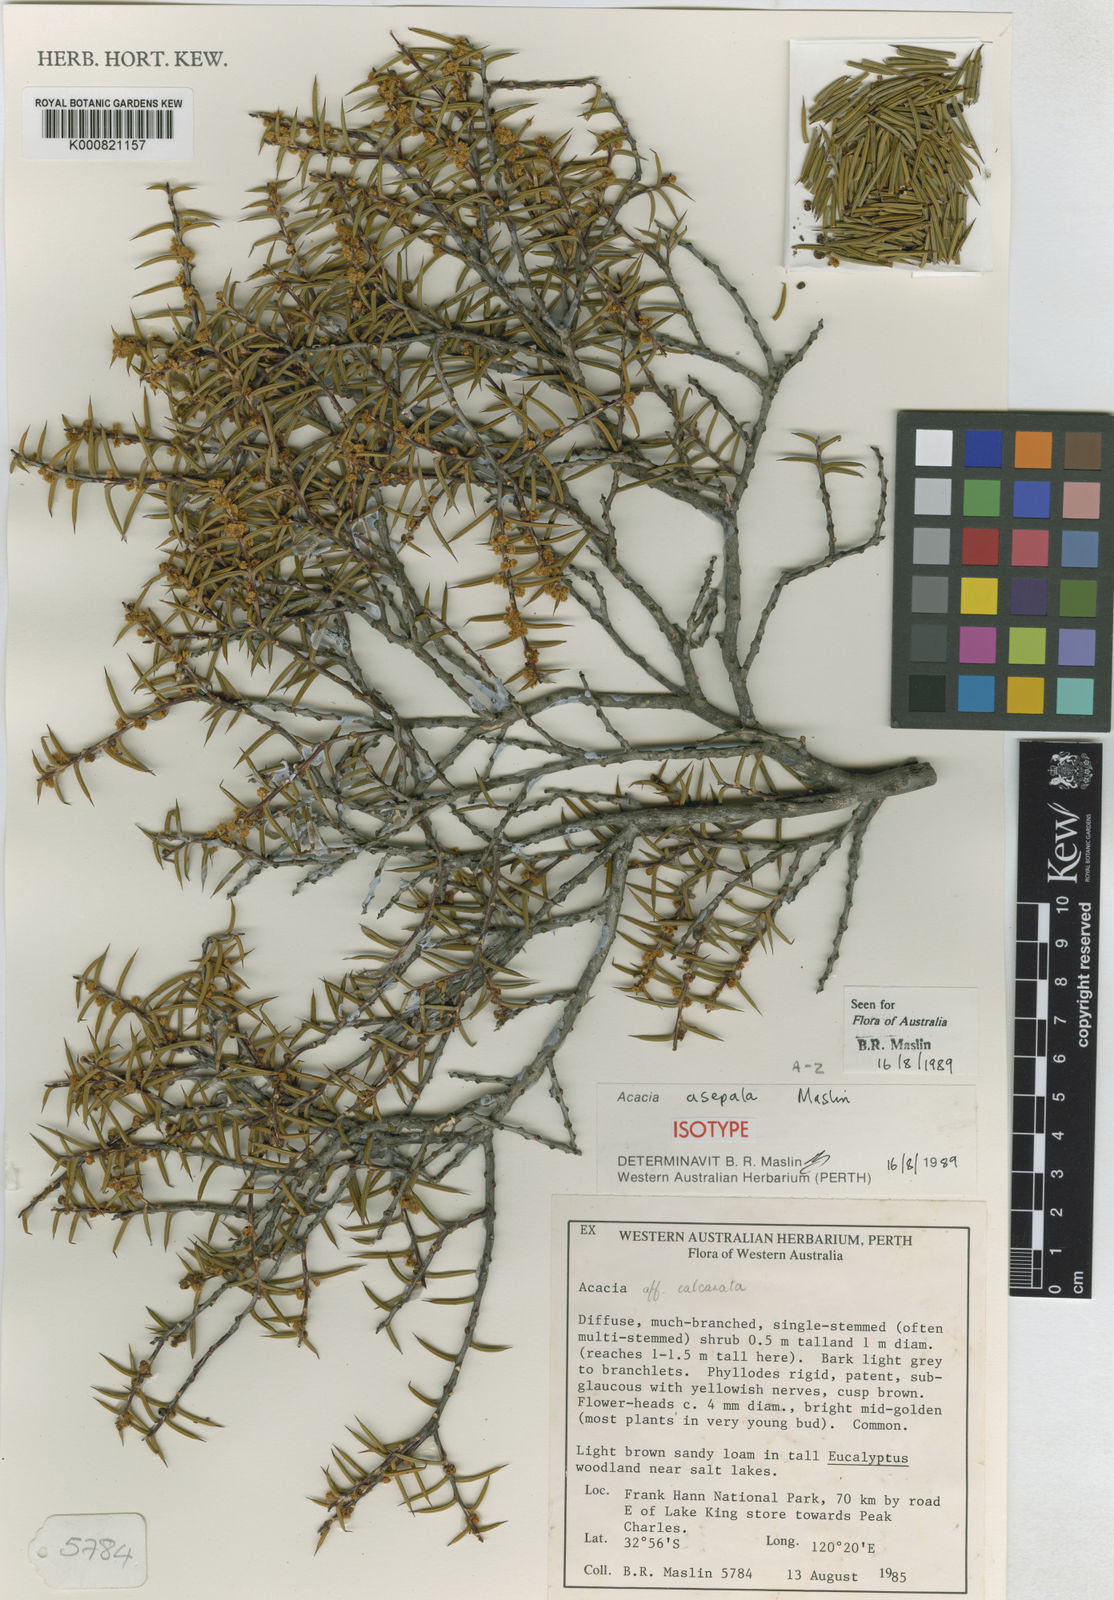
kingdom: Plantae
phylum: Tracheophyta
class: Magnoliopsida
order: Fabales
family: Fabaceae
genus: Acacia
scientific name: Acacia asepala
